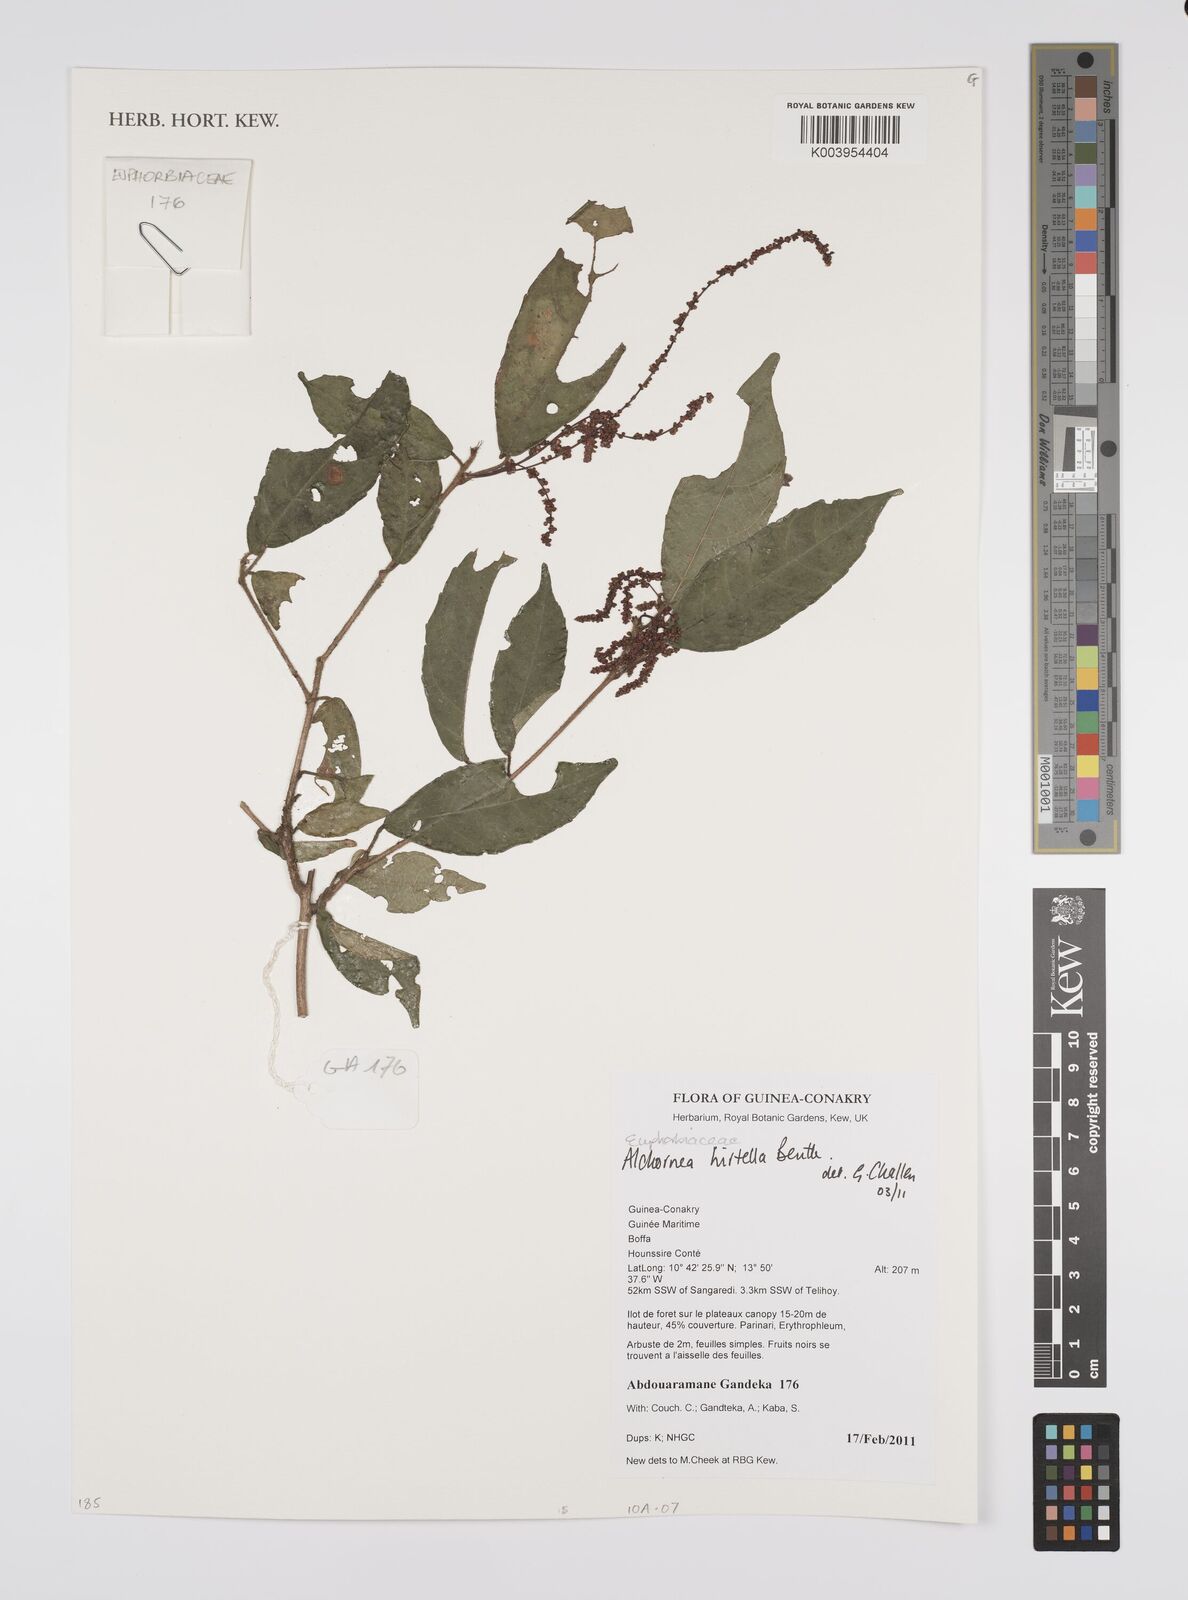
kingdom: Plantae
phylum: Tracheophyta
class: Magnoliopsida
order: Malpighiales
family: Euphorbiaceae
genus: Alchornea
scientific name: Alchornea hirtella
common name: Forest bead-string
